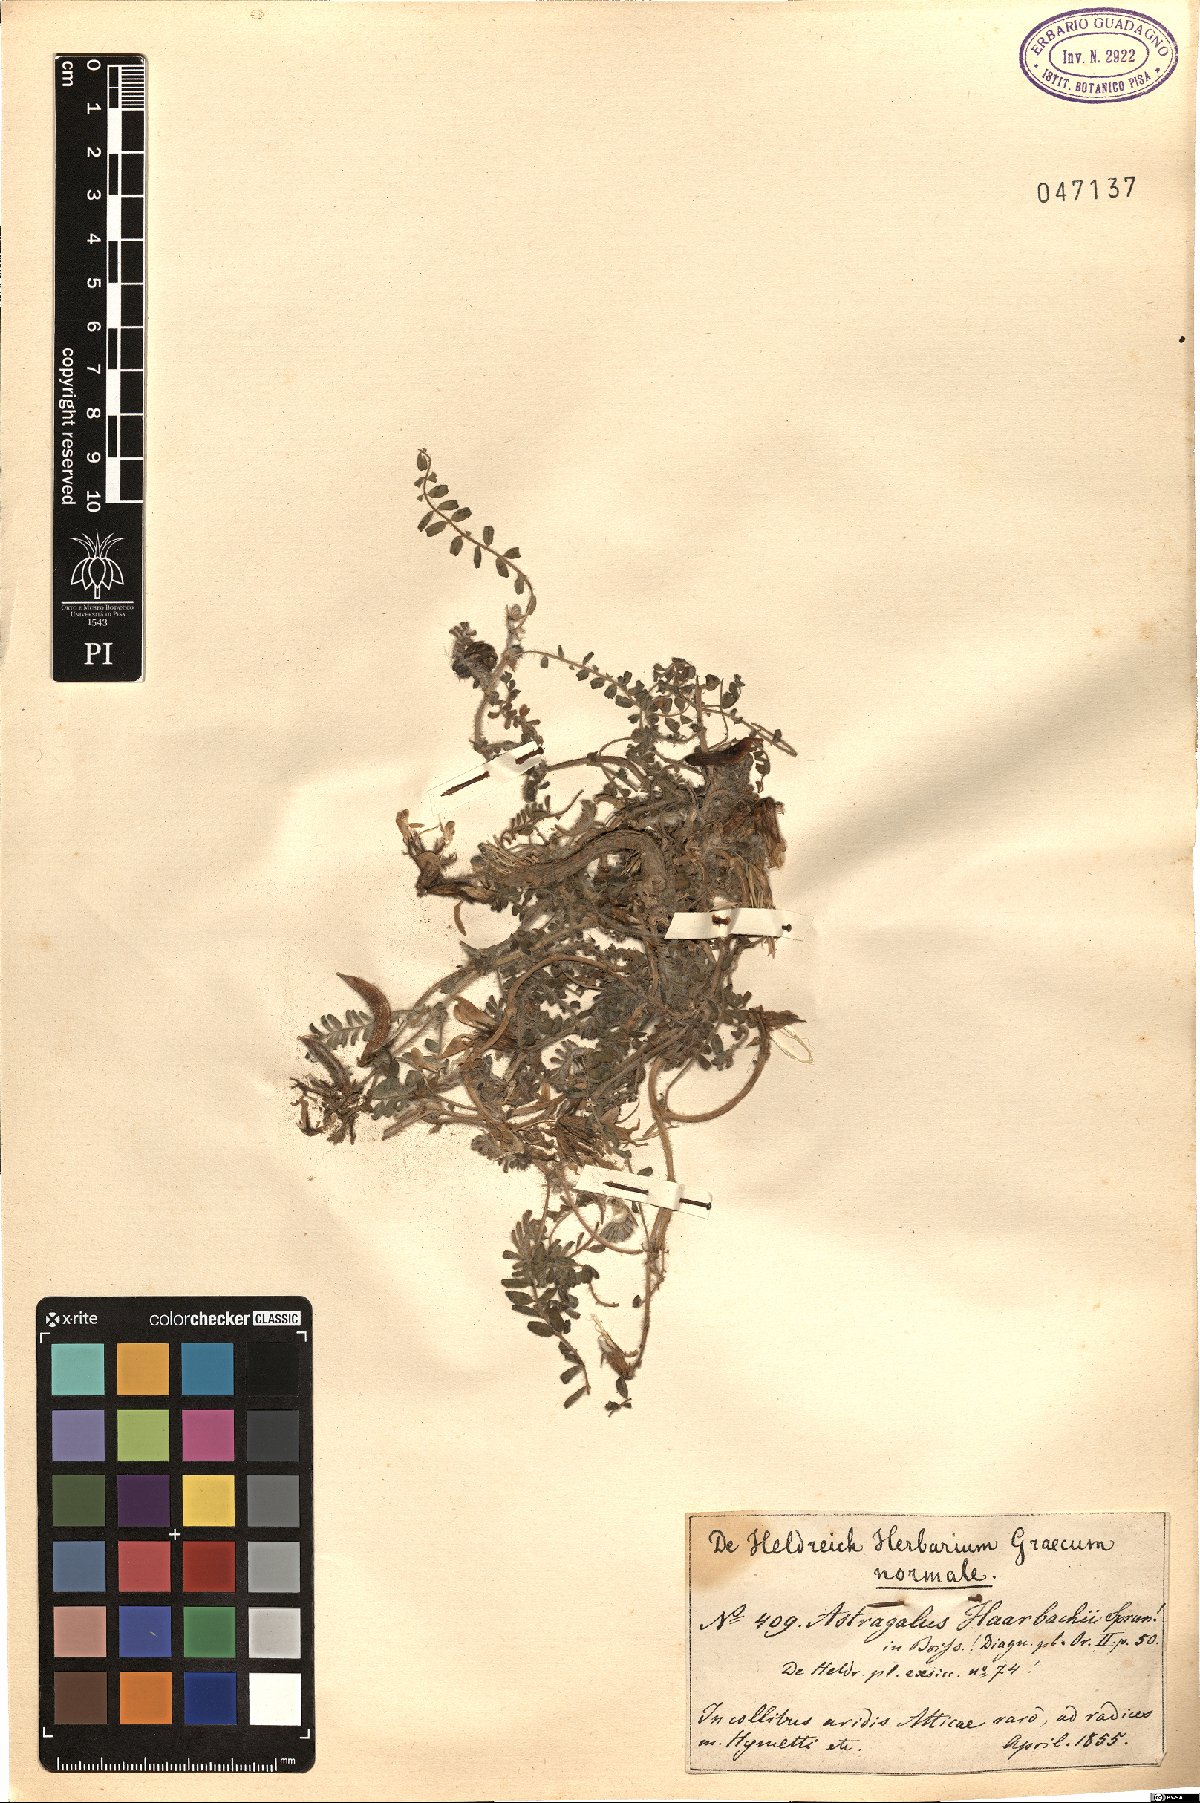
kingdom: Plantae
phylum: Tracheophyta
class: Magnoliopsida
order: Fabales
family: Fabaceae
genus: Astragalus
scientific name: Astragalus suberosus
